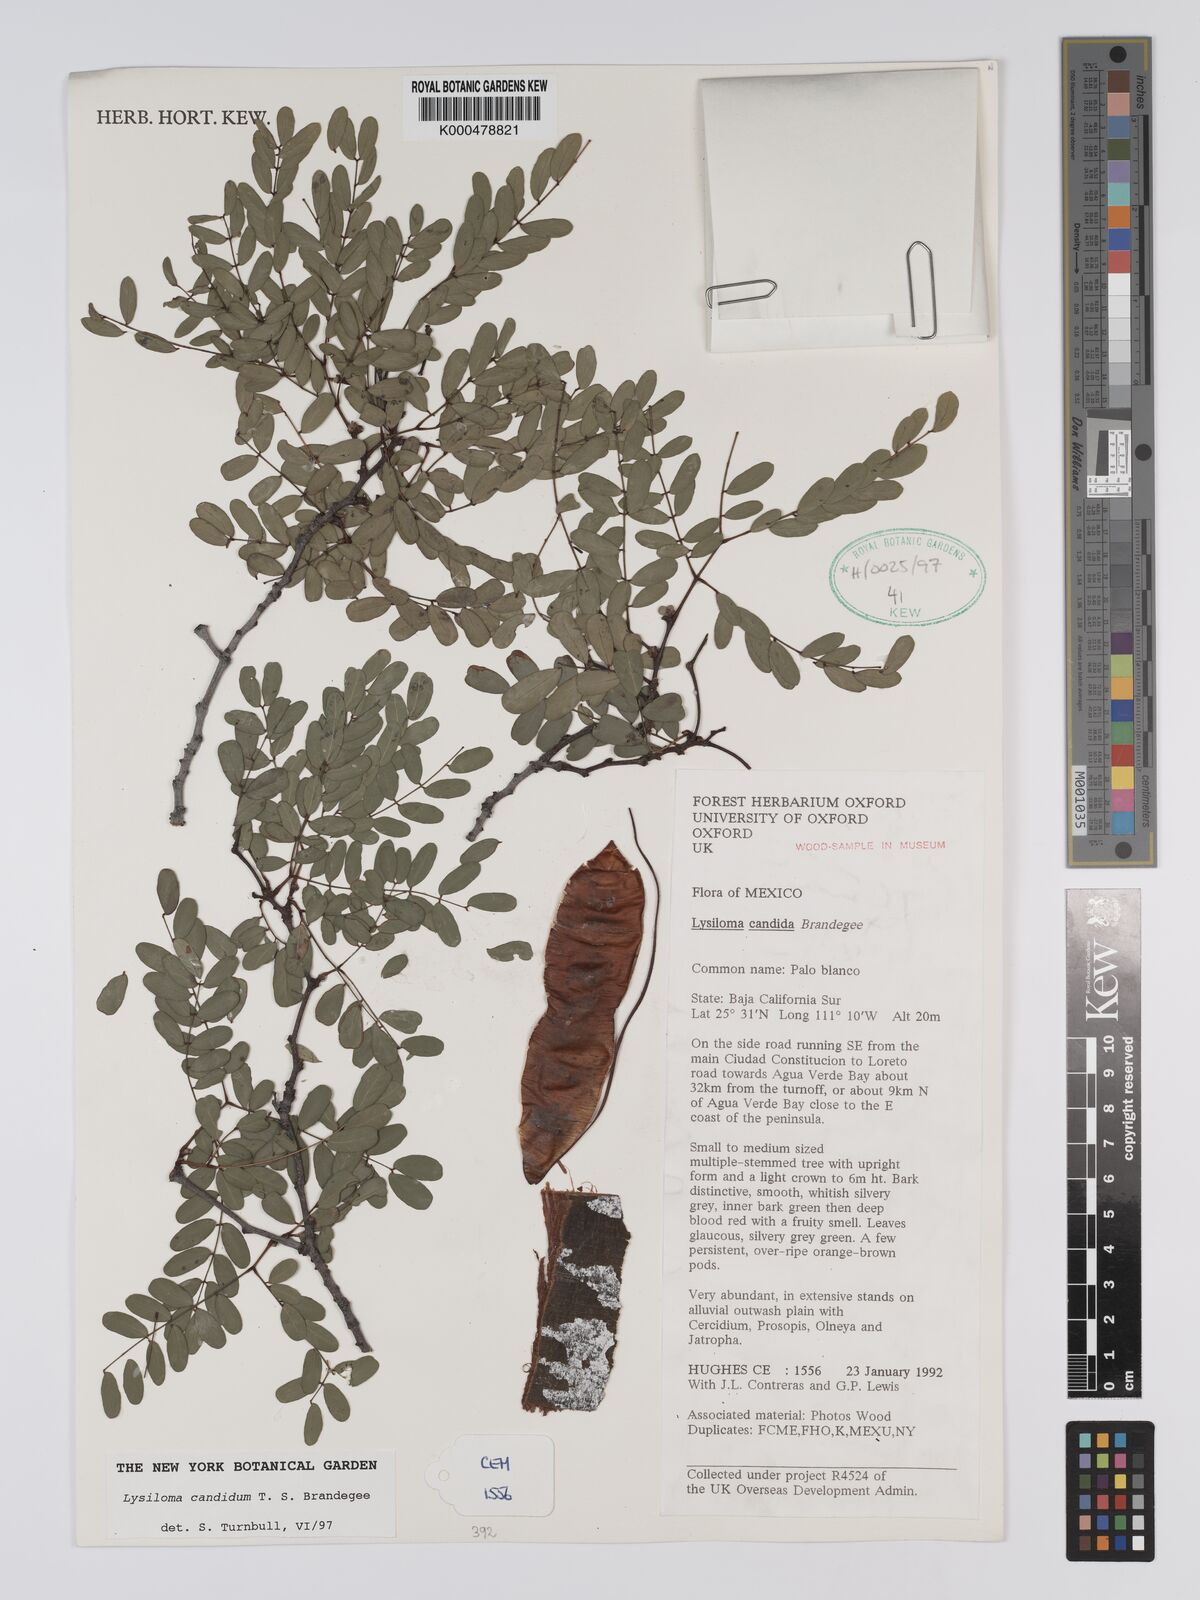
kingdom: Plantae
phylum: Tracheophyta
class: Magnoliopsida
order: Fabales
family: Fabaceae
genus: Lysiloma
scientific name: Lysiloma candidum
